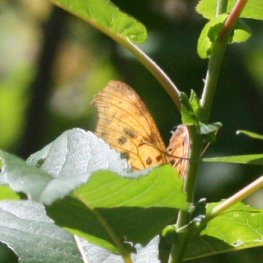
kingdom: Animalia
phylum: Arthropoda
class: Insecta
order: Lepidoptera
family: Nymphalidae
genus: Polygonia
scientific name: Polygonia interrogationis
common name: Question Mark
